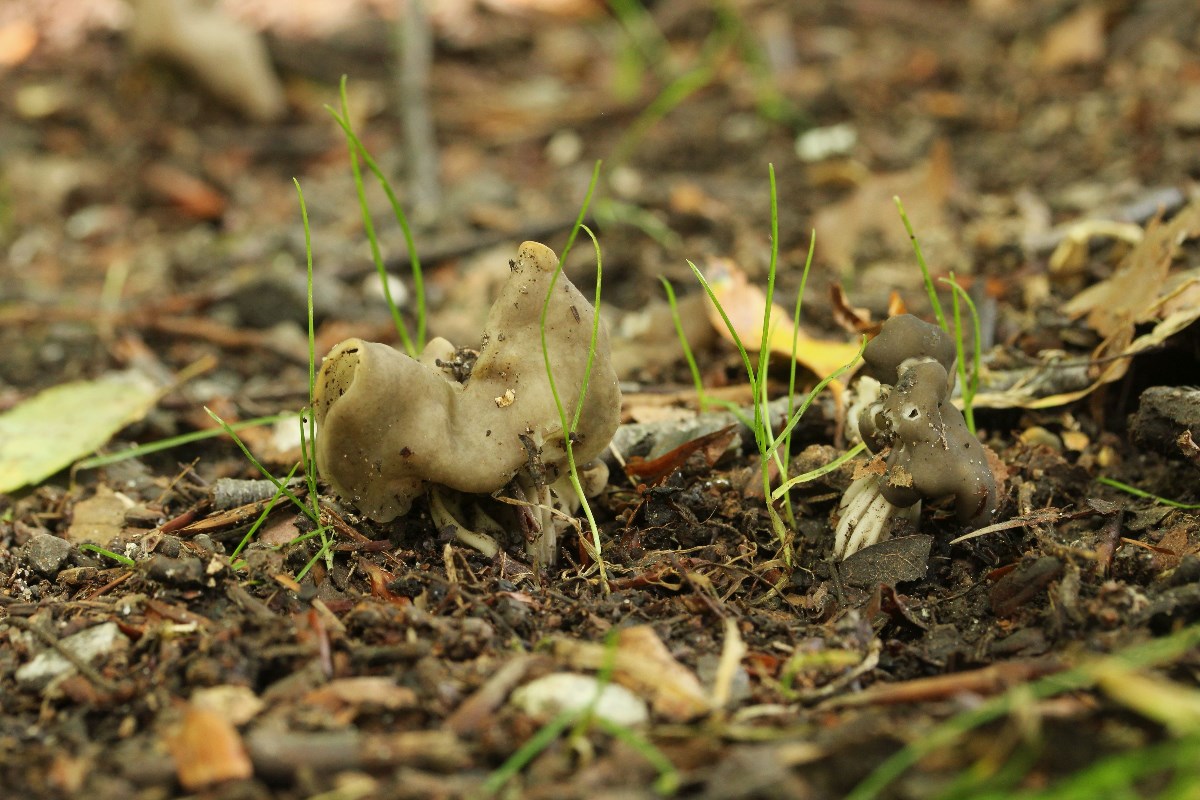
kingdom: Fungi
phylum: Ascomycota
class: Pezizomycetes
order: Pezizales
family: Helvellaceae
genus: Helvella
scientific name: Helvella lacunosa
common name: grubet foldhat
